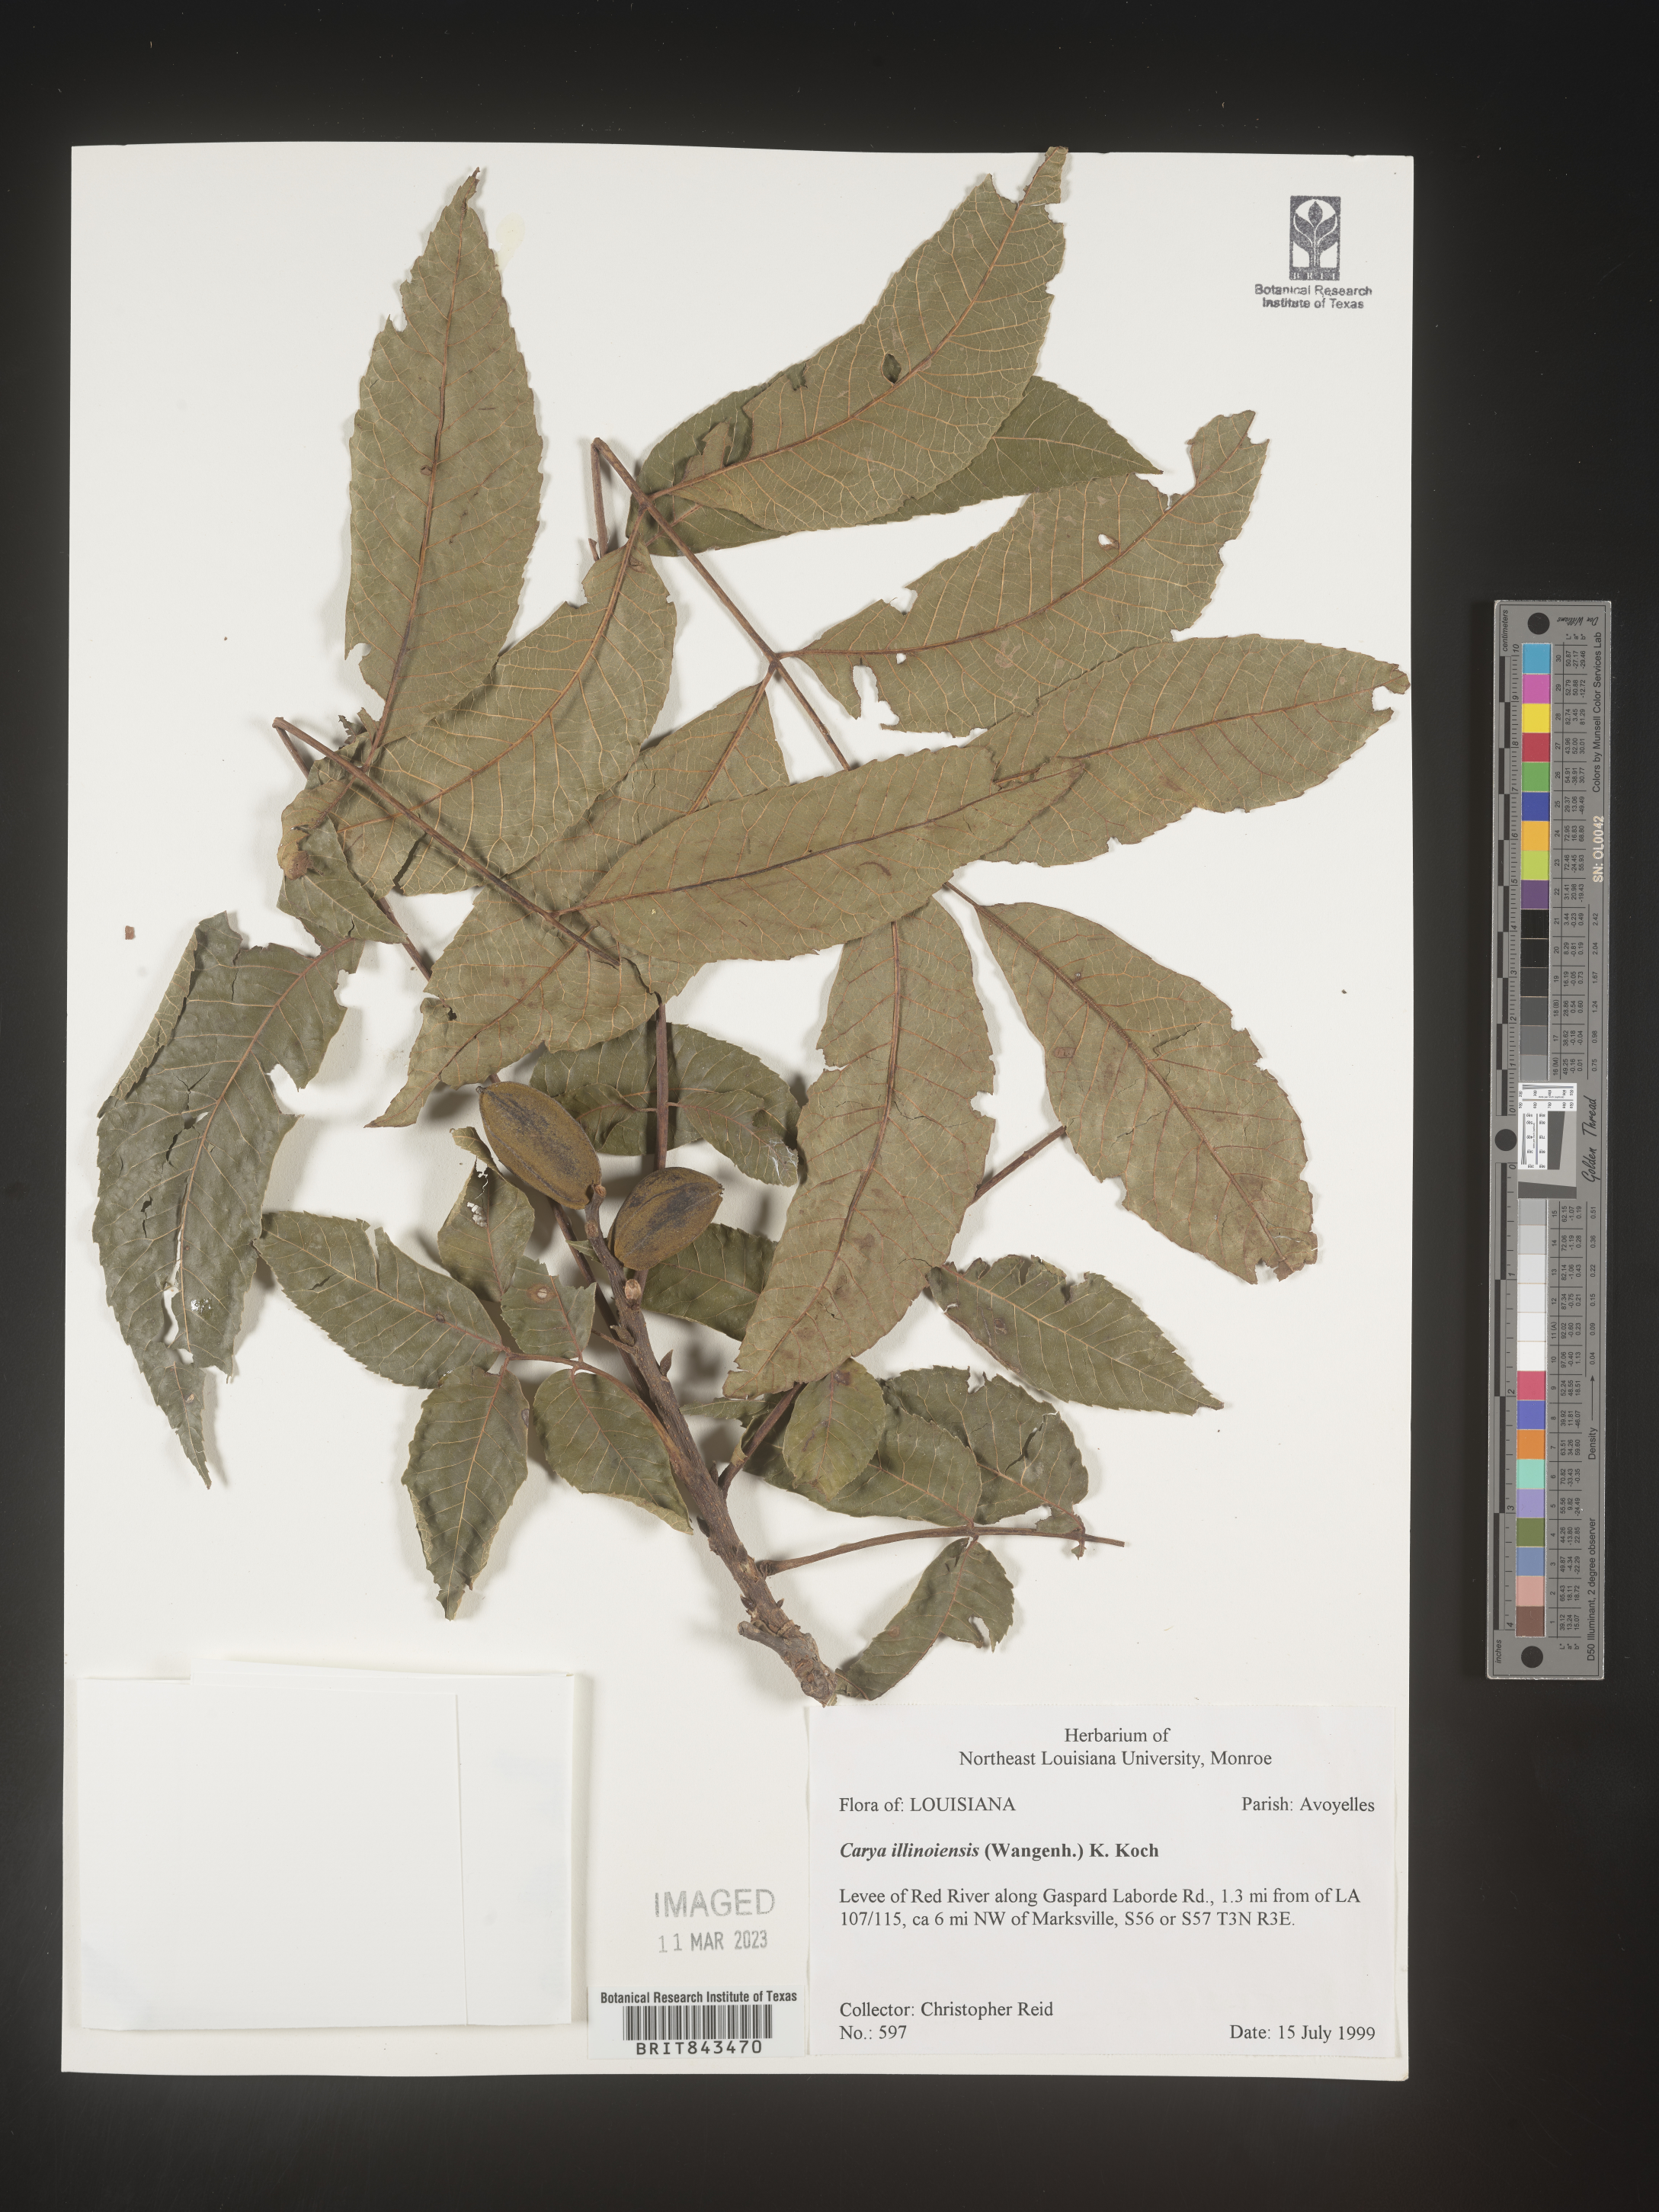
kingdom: Plantae
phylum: Tracheophyta
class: Magnoliopsida
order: Fagales
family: Juglandaceae
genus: Carya
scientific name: Carya illinoinensis
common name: Pecan
